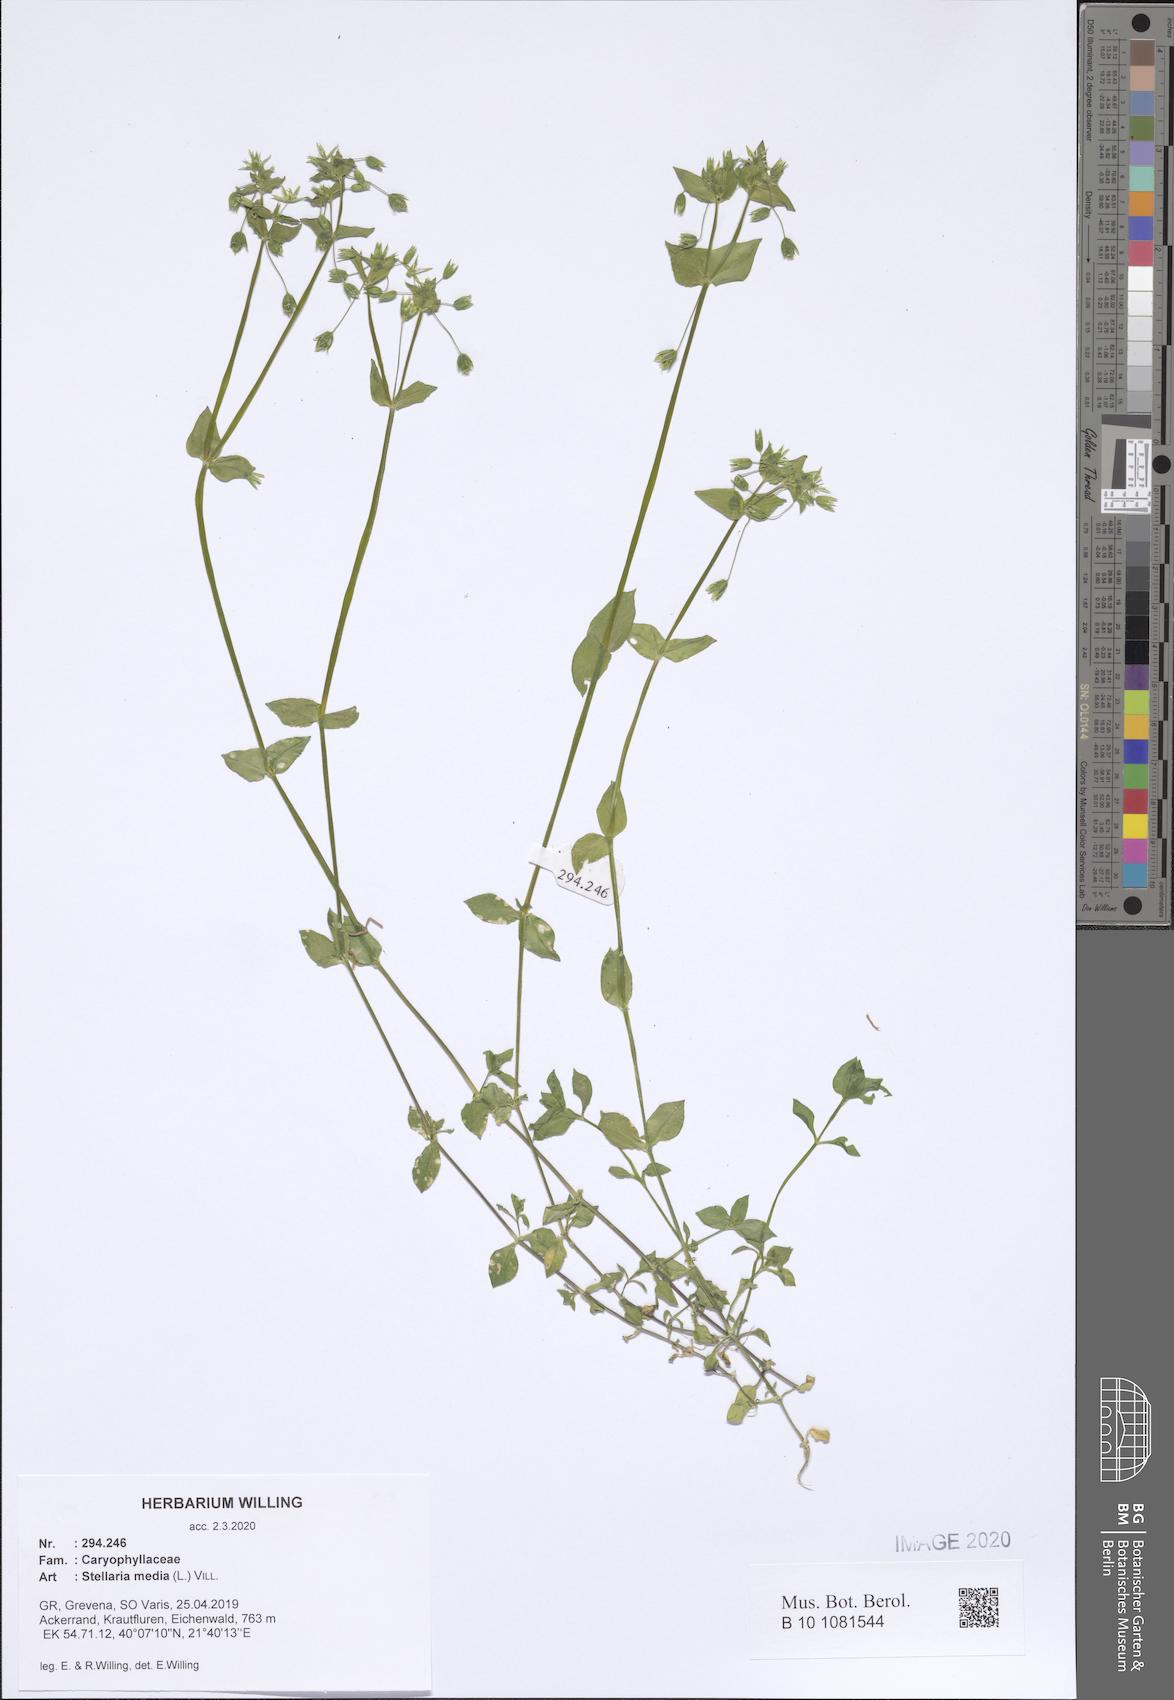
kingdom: Plantae
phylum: Tracheophyta
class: Magnoliopsida
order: Caryophyllales
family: Caryophyllaceae
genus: Stellaria
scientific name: Stellaria media
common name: Common chickweed
